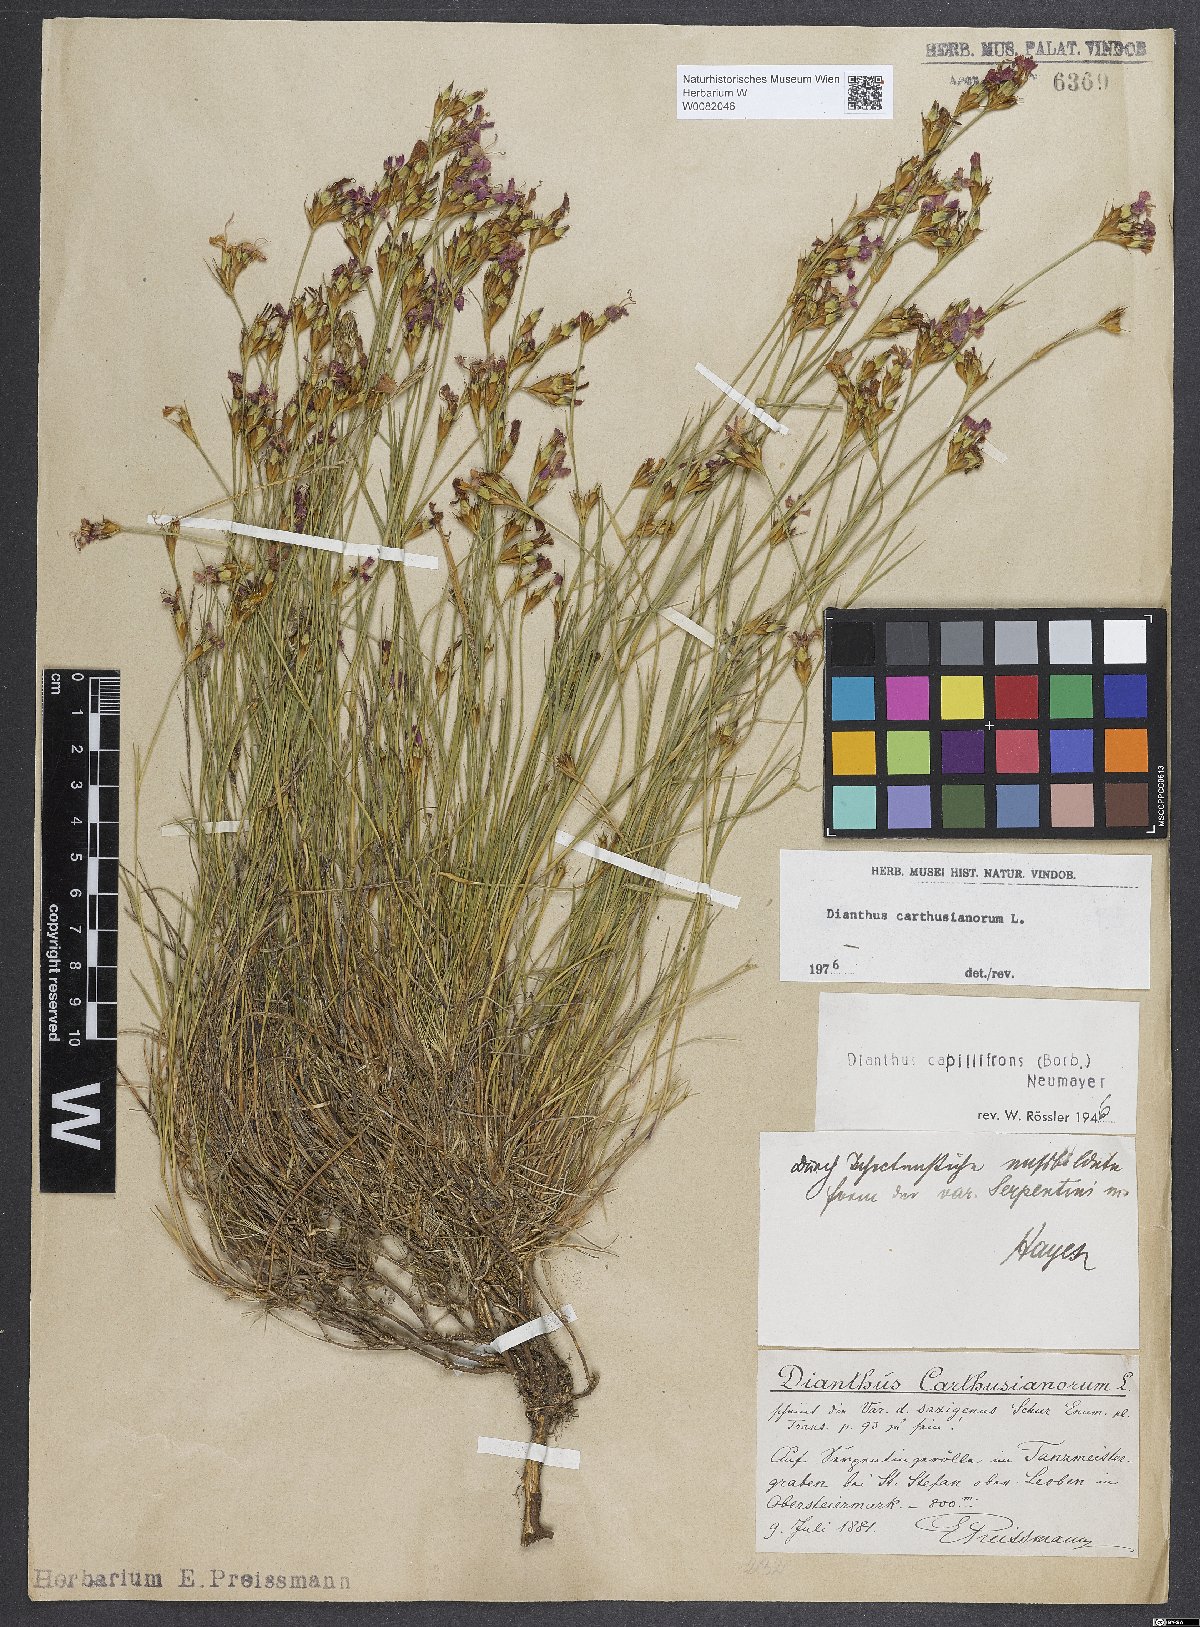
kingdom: Plantae
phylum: Tracheophyta
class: Magnoliopsida
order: Caryophyllales
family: Caryophyllaceae
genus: Dianthus
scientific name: Dianthus carthusianorum
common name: Carthusian pink
